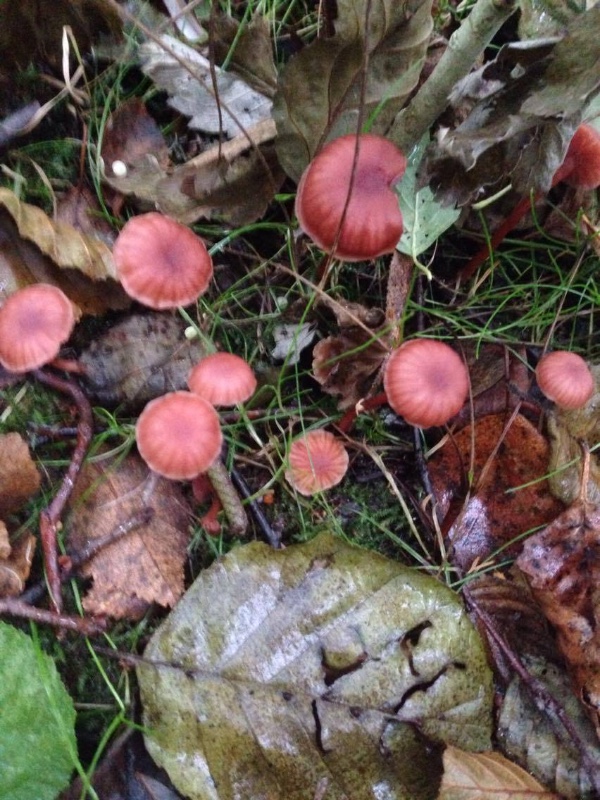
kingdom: Fungi
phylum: Basidiomycota
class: Agaricomycetes
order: Agaricales
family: Hydnangiaceae
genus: Laccaria
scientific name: Laccaria laccata
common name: rød ametysthat
